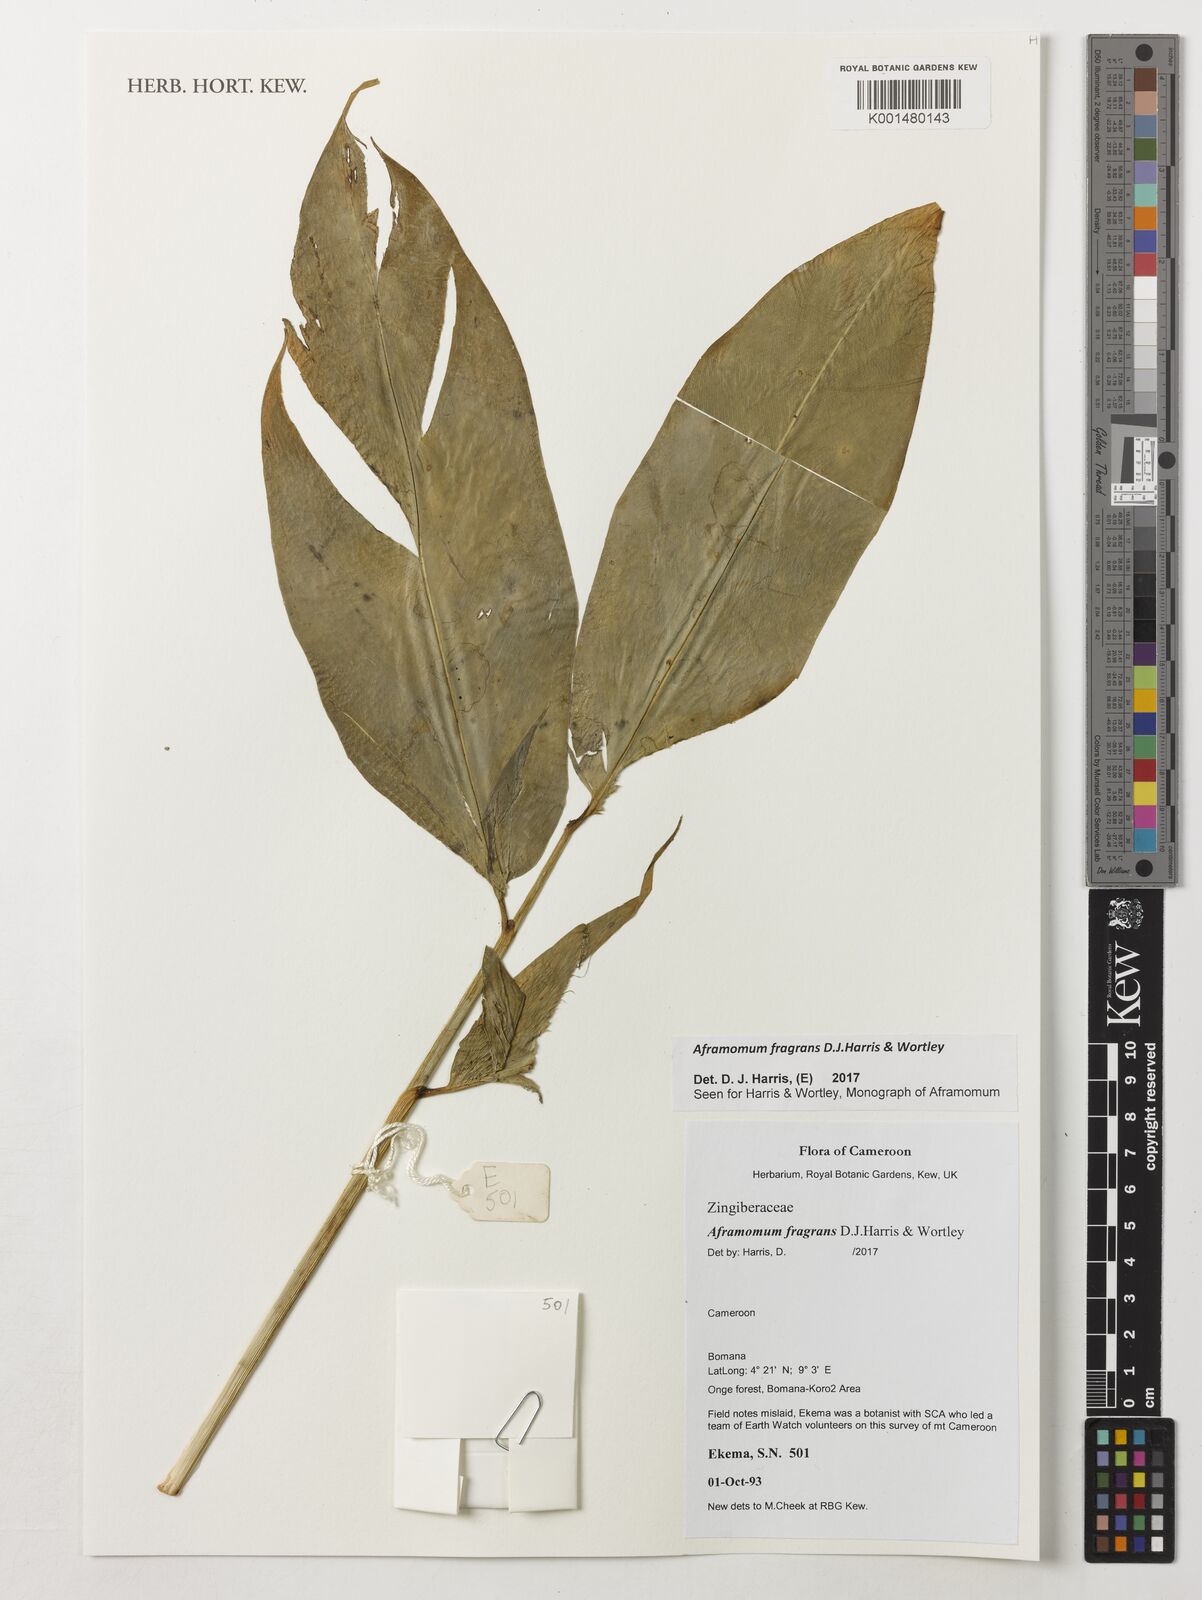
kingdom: Plantae
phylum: Tracheophyta
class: Liliopsida
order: Zingiberales
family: Zingiberaceae
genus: Aframomum
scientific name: Aframomum fragrans
